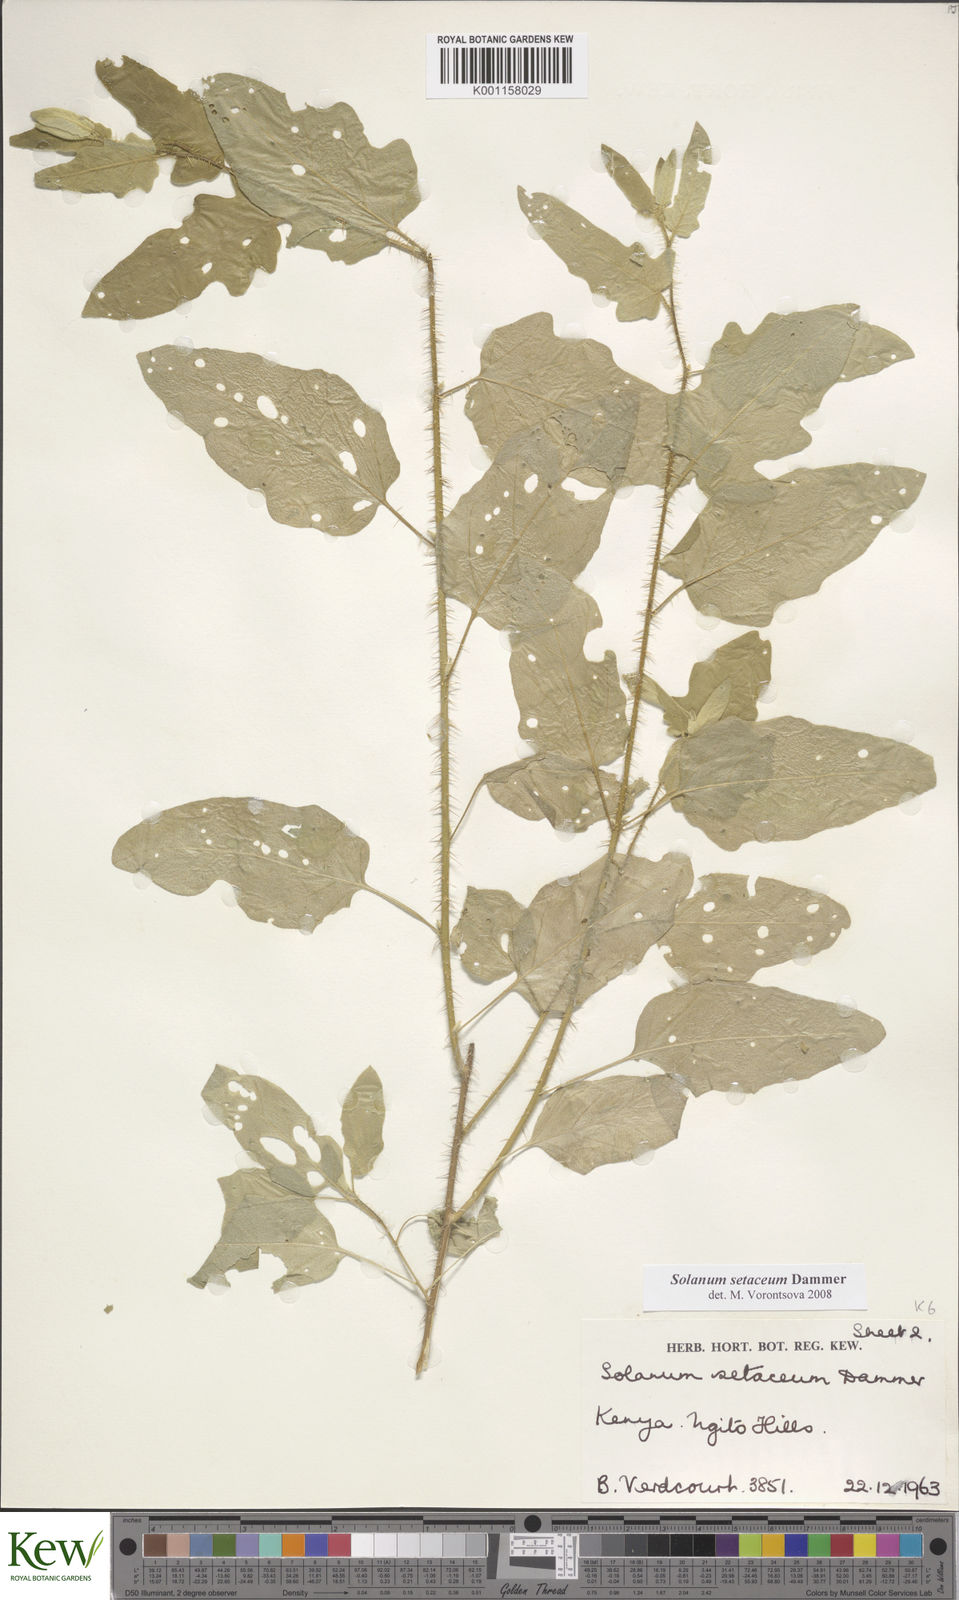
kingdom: Plantae
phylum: Tracheophyta
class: Magnoliopsida
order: Solanales
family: Solanaceae
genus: Solanum
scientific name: Solanum setaceum
